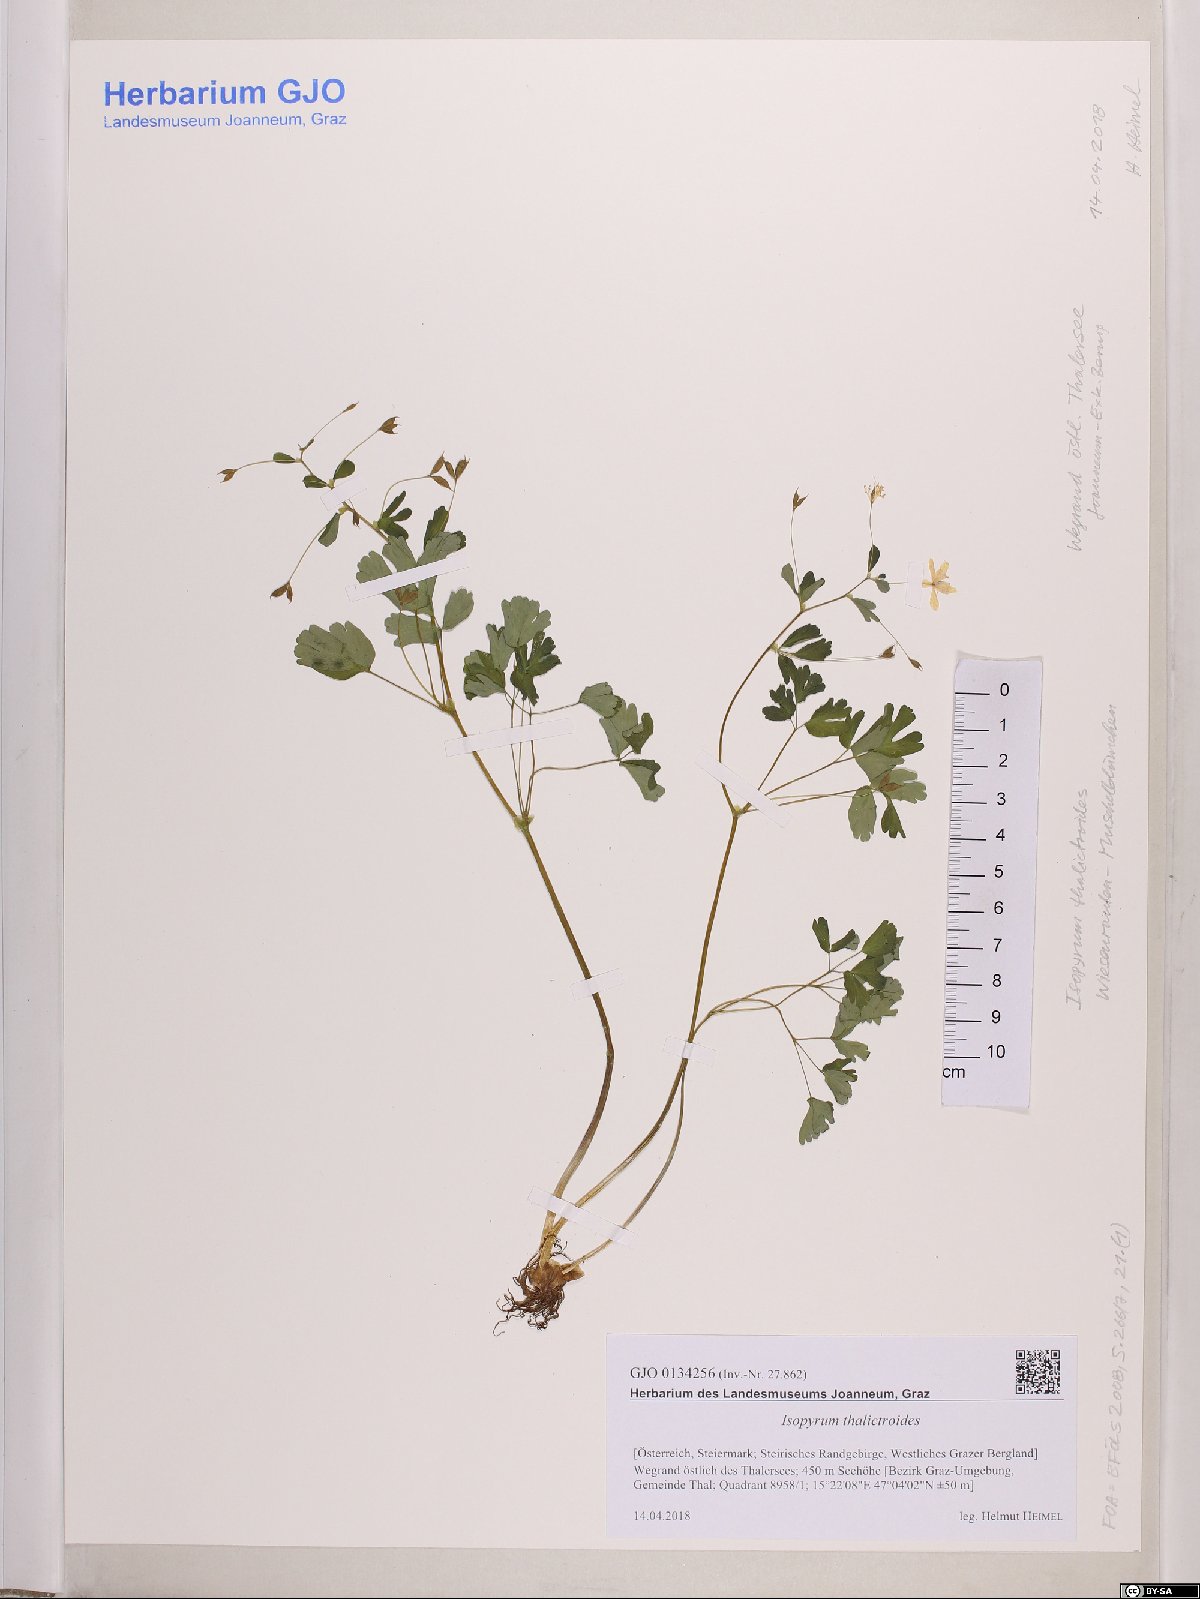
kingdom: Plantae
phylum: Tracheophyta
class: Magnoliopsida
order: Ranunculales
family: Ranunculaceae
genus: Isopyrum
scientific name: Isopyrum thalictroides
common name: Isopyrum
